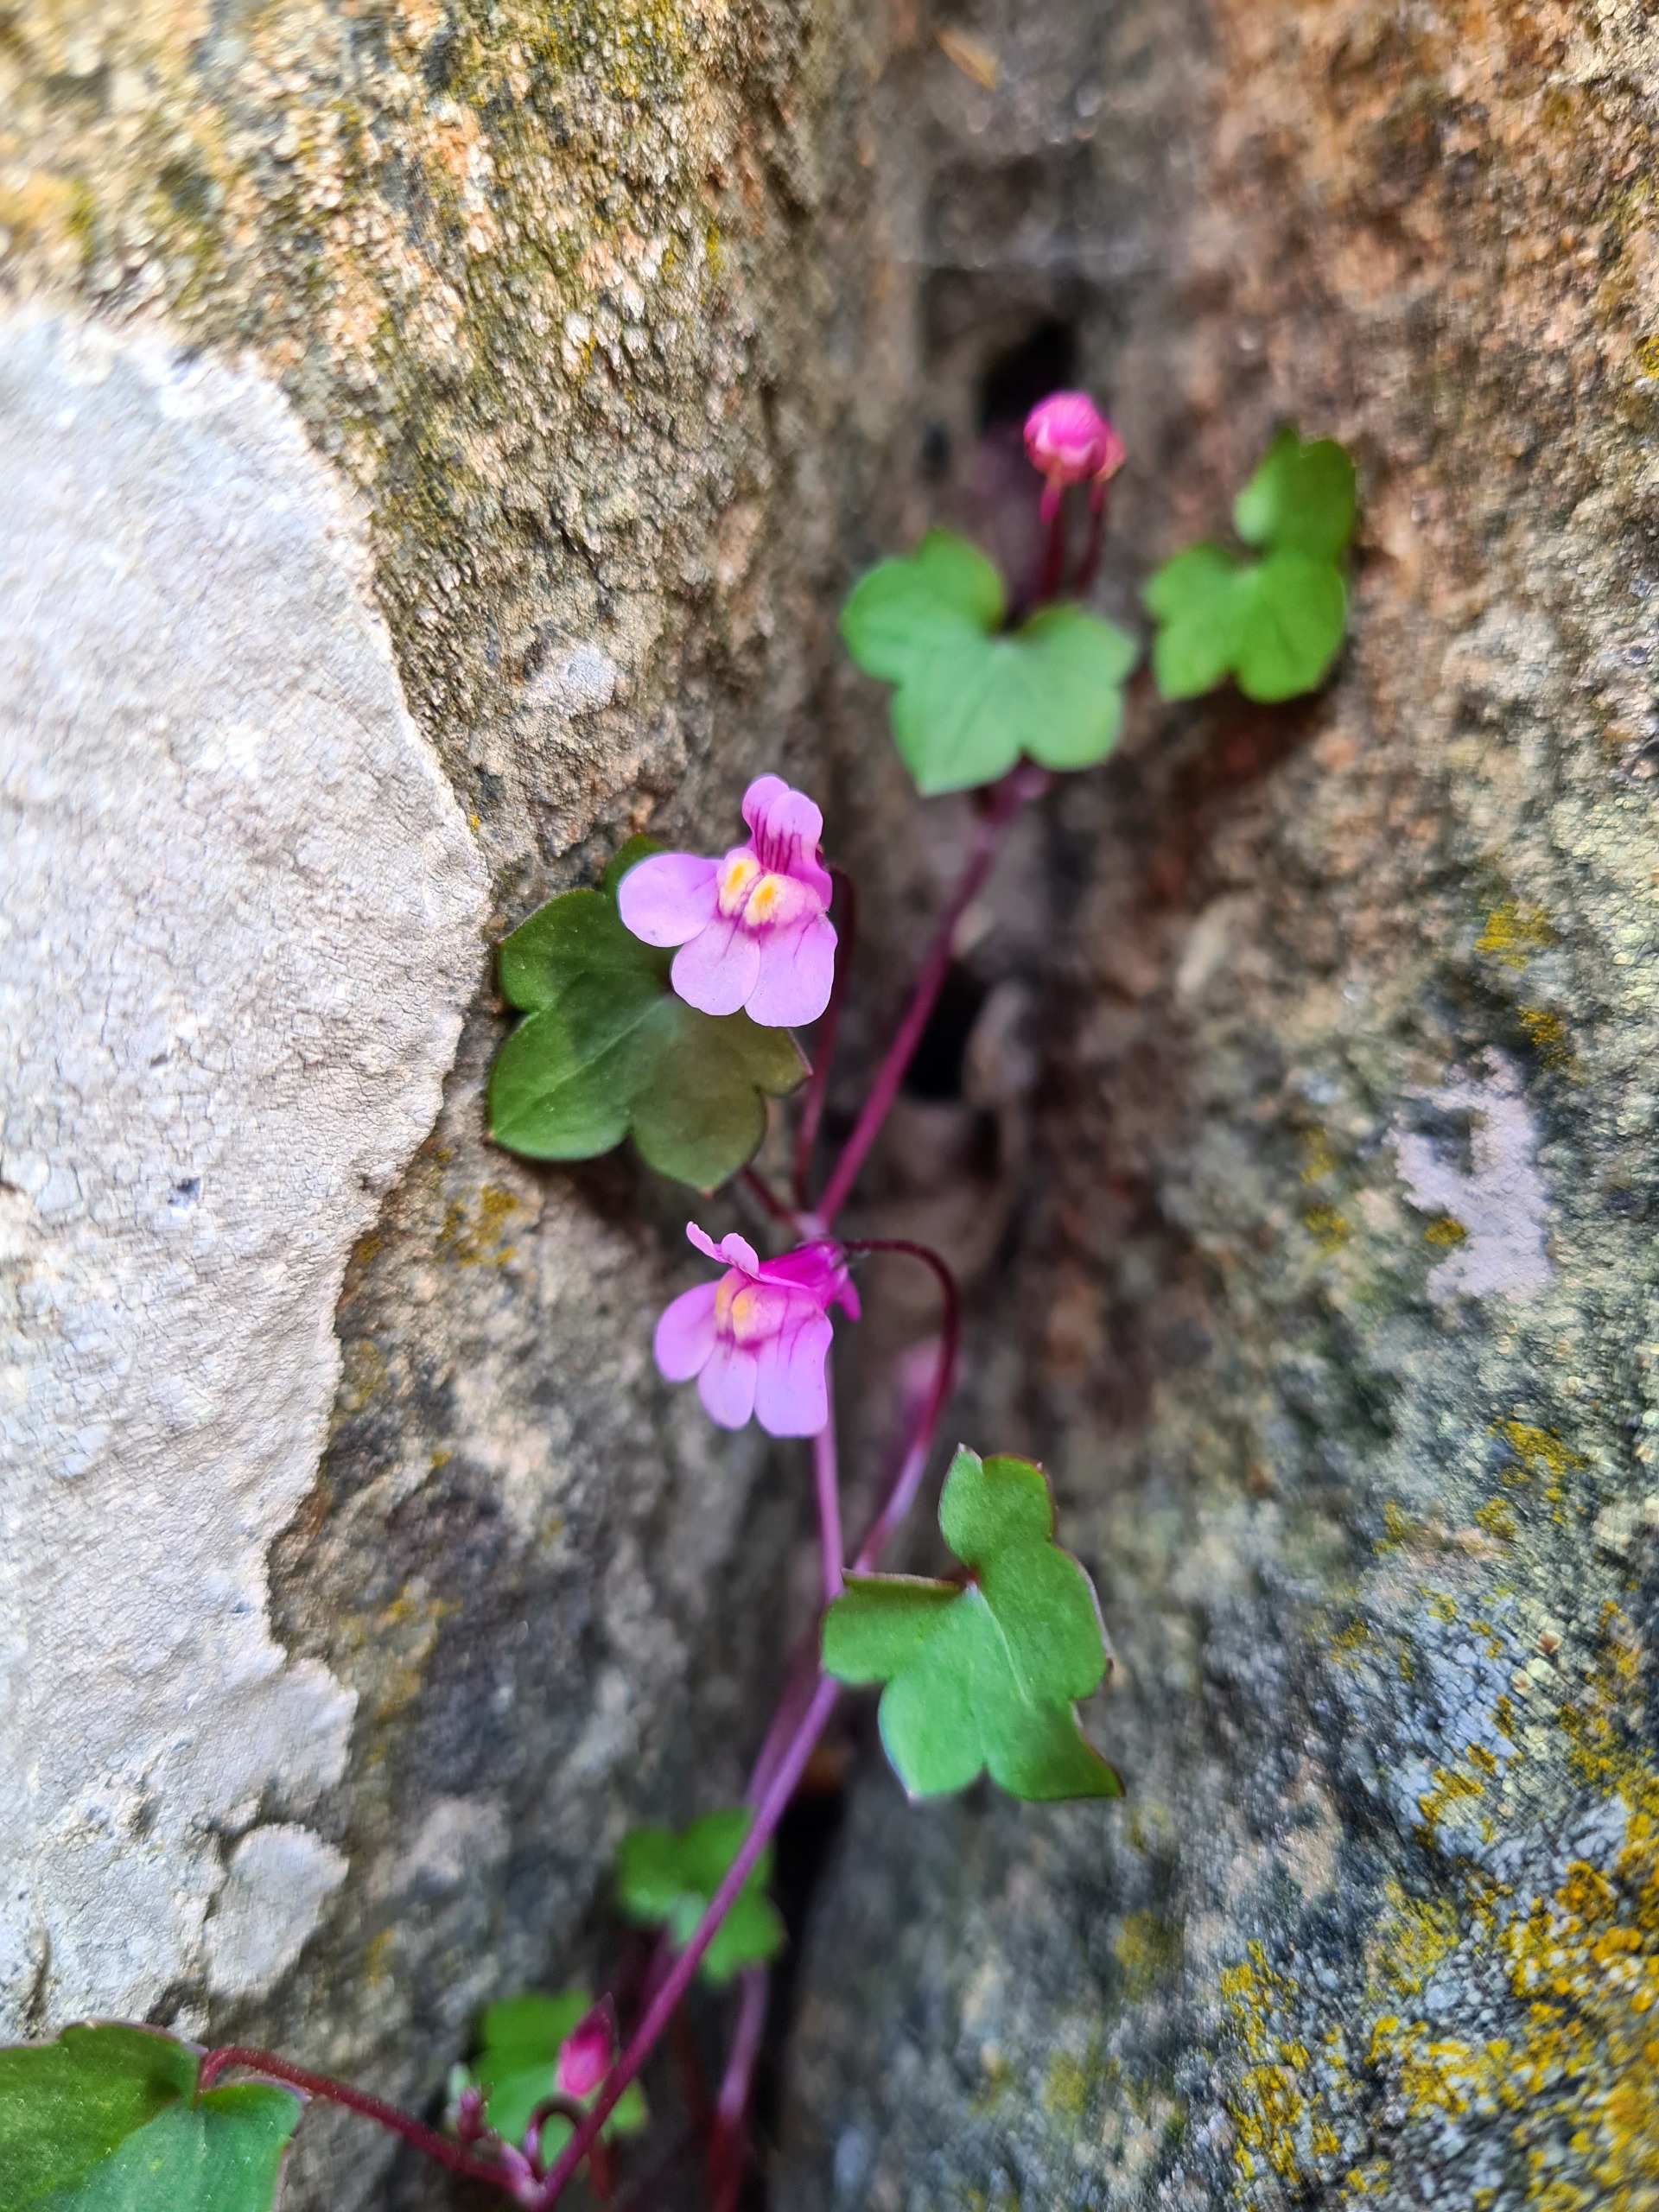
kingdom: Plantae
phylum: Tracheophyta
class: Magnoliopsida
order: Lamiales
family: Plantaginaceae
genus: Cymbalaria
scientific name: Cymbalaria muralis
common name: Vedbend-torskemund
